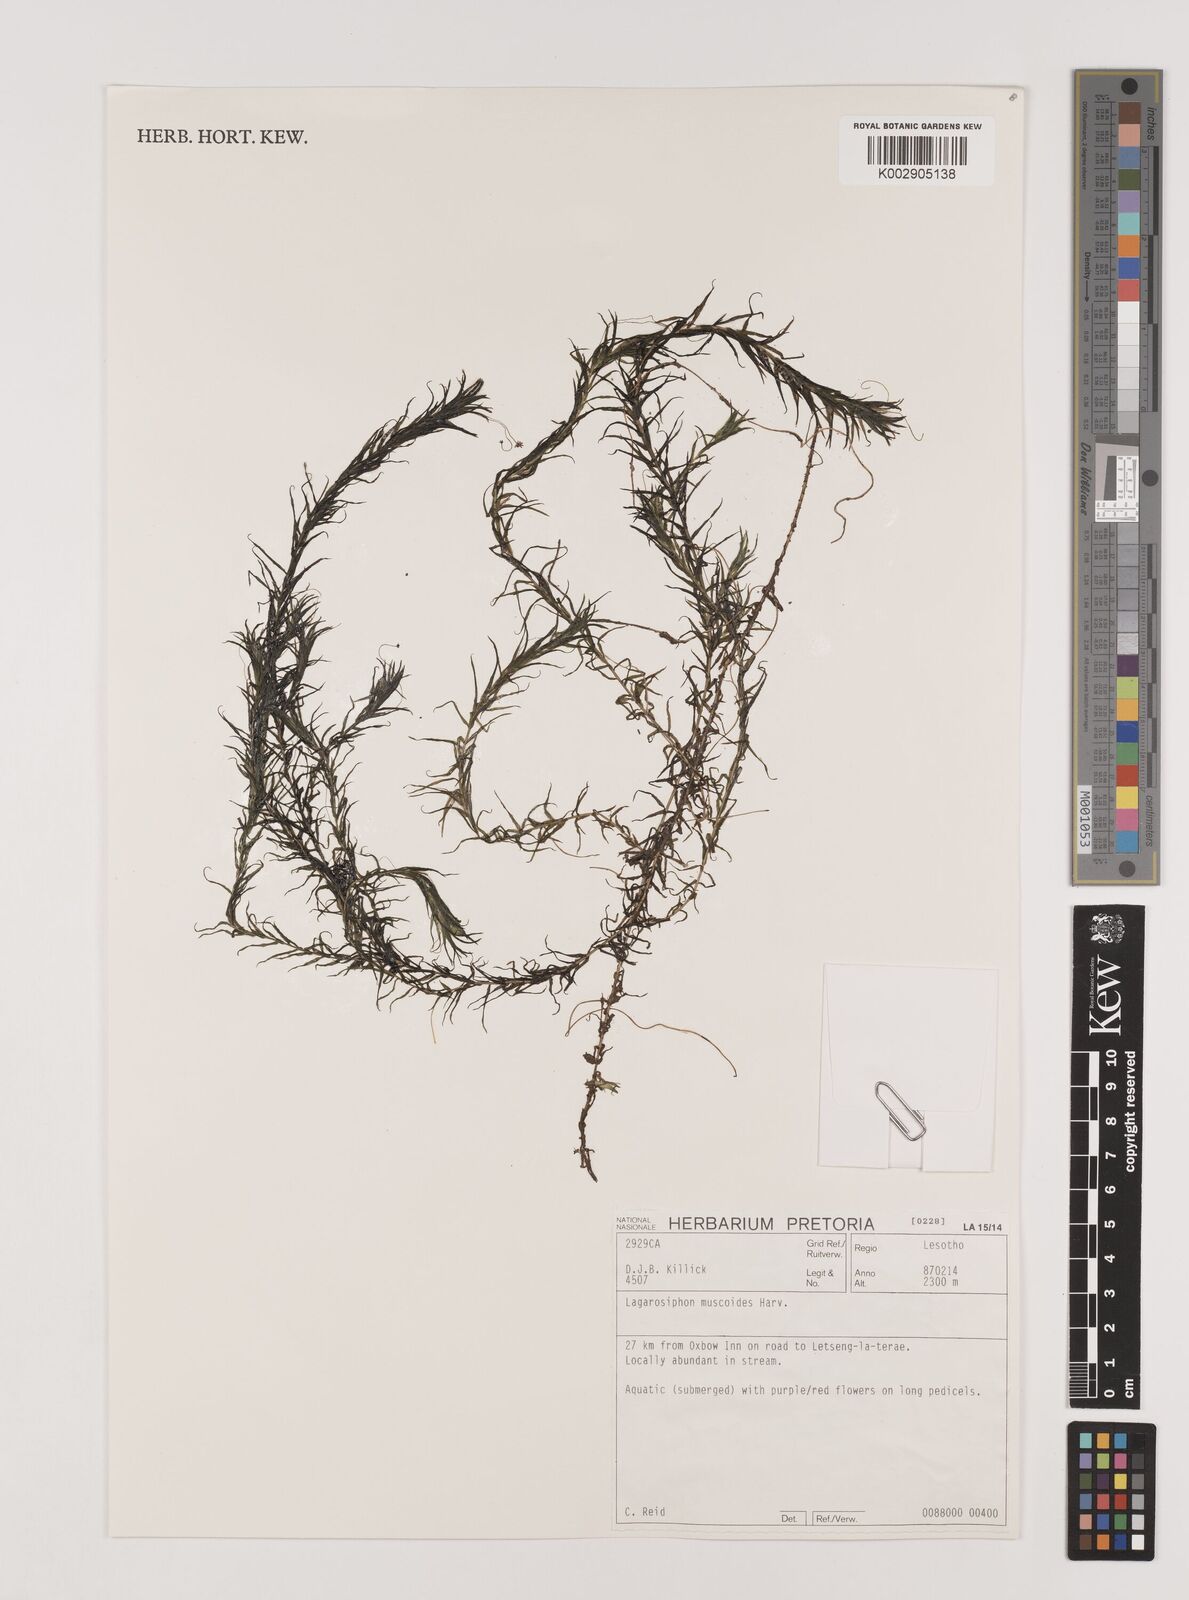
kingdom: Plantae
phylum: Tracheophyta
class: Liliopsida
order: Alismatales
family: Hydrocharitaceae
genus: Lagarosiphon
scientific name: Lagarosiphon muscoides
